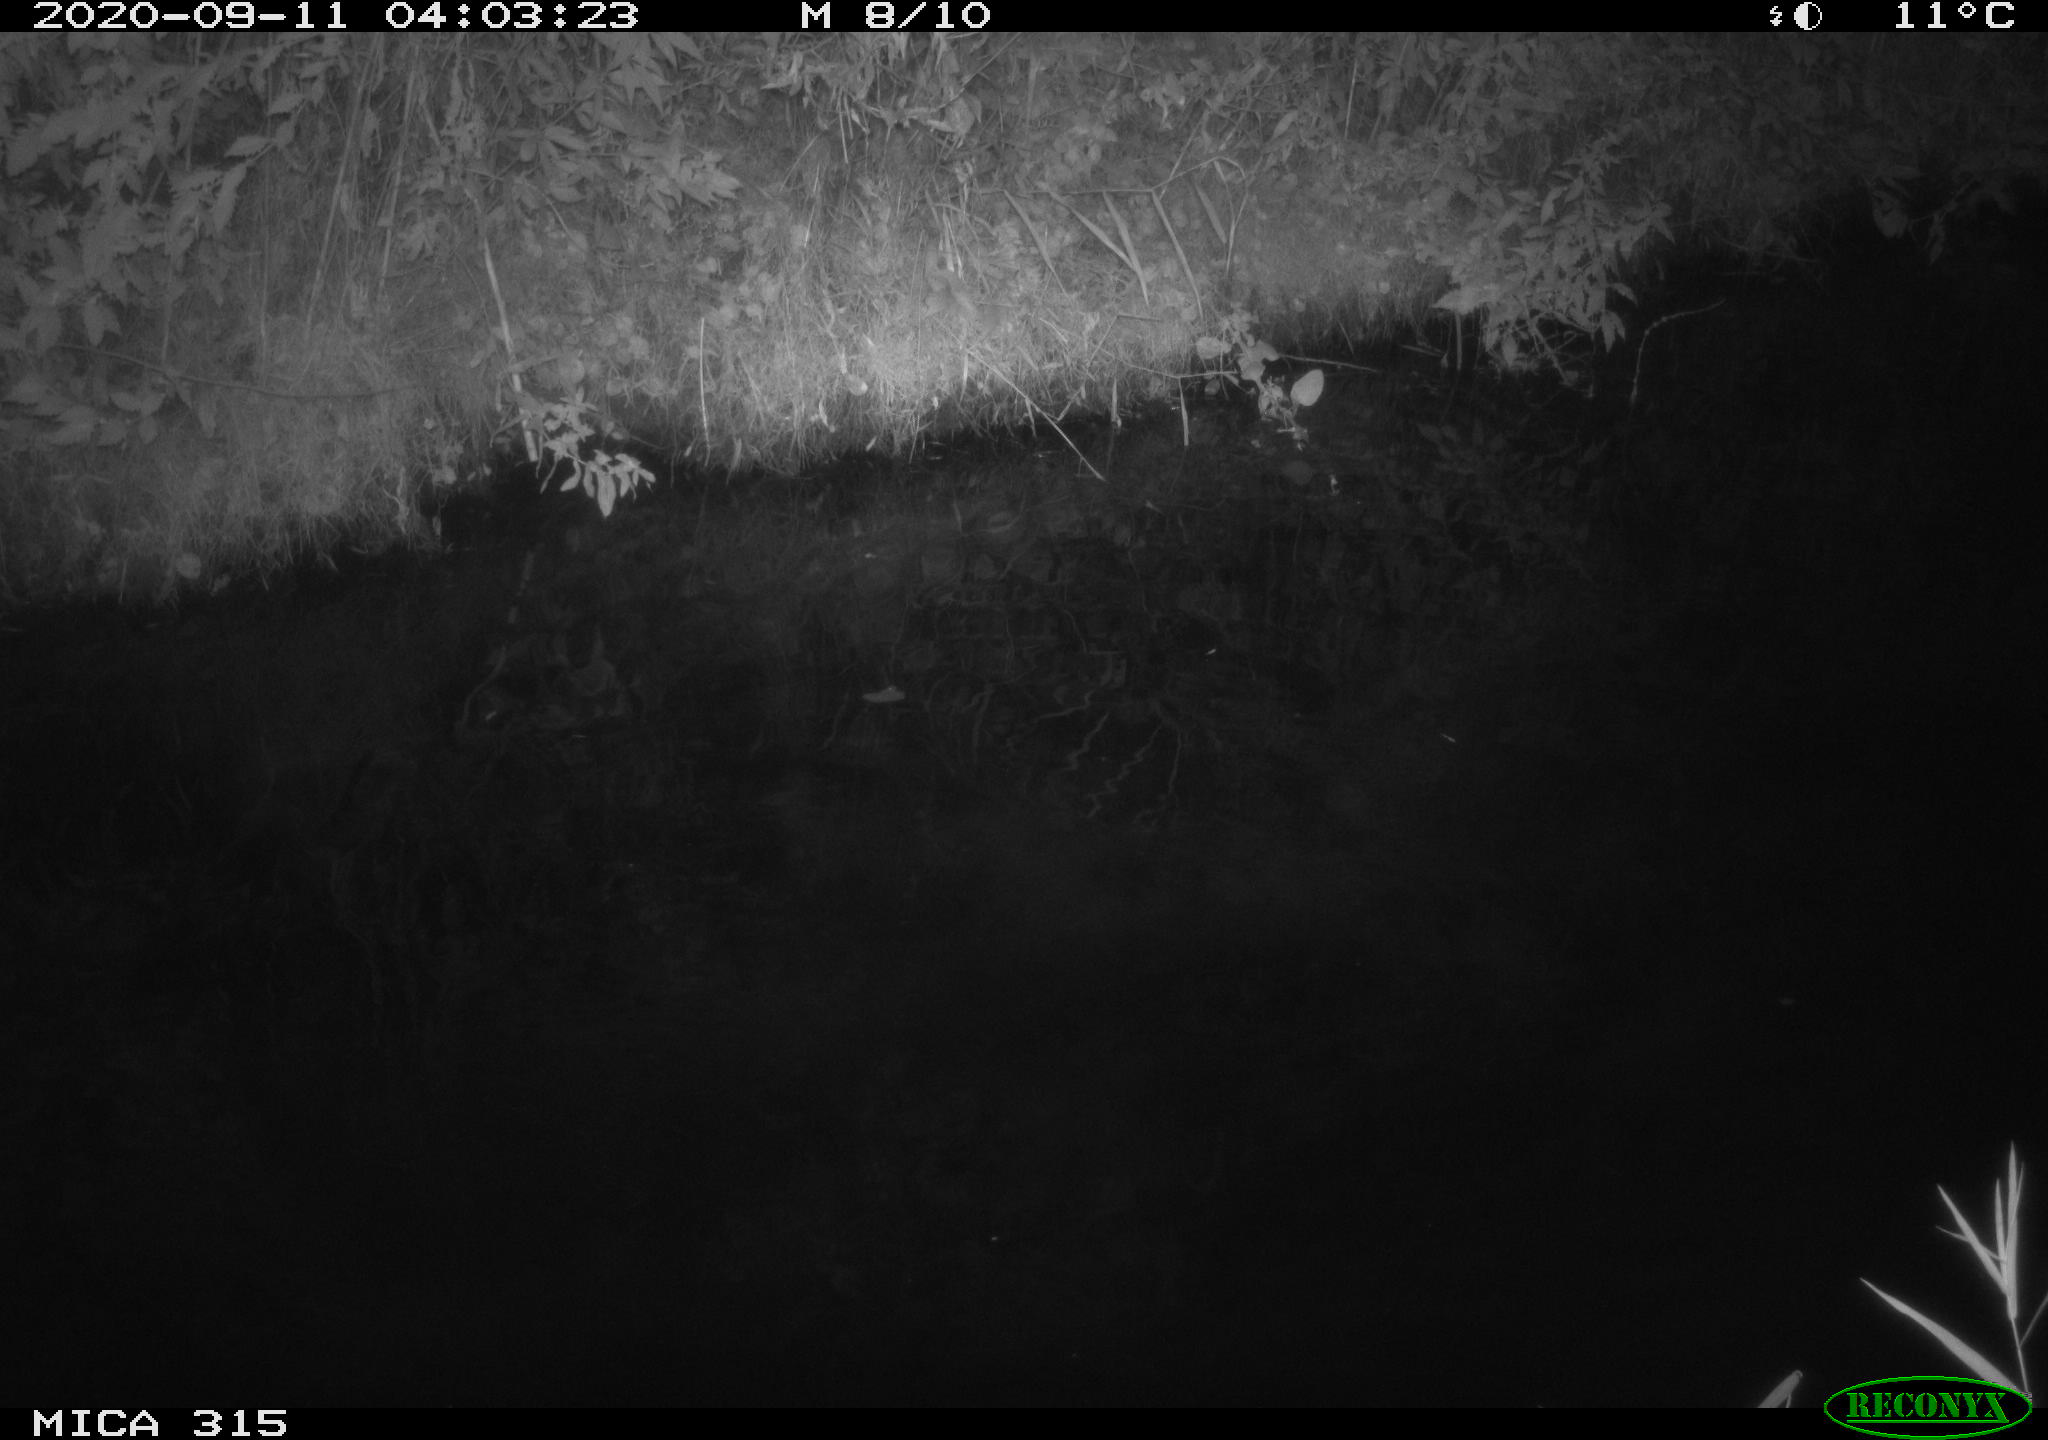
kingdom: Animalia
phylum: Chordata
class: Aves
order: Anseriformes
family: Anatidae
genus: Anas
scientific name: Anas platyrhynchos
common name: Mallard
